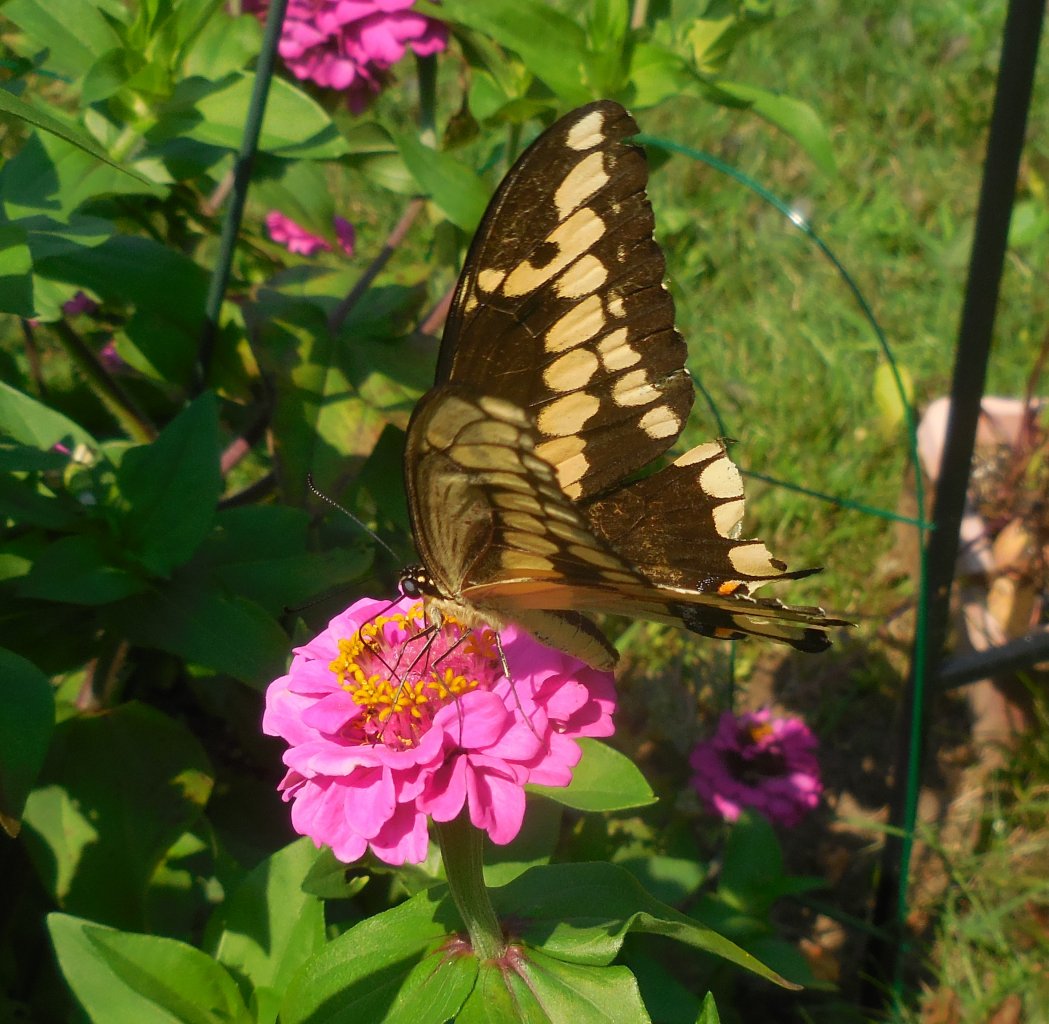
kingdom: Animalia
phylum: Arthropoda
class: Insecta
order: Lepidoptera
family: Papilionidae
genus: Papilio
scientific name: Papilio cresphontes
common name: Eastern Giant Swallowtail
